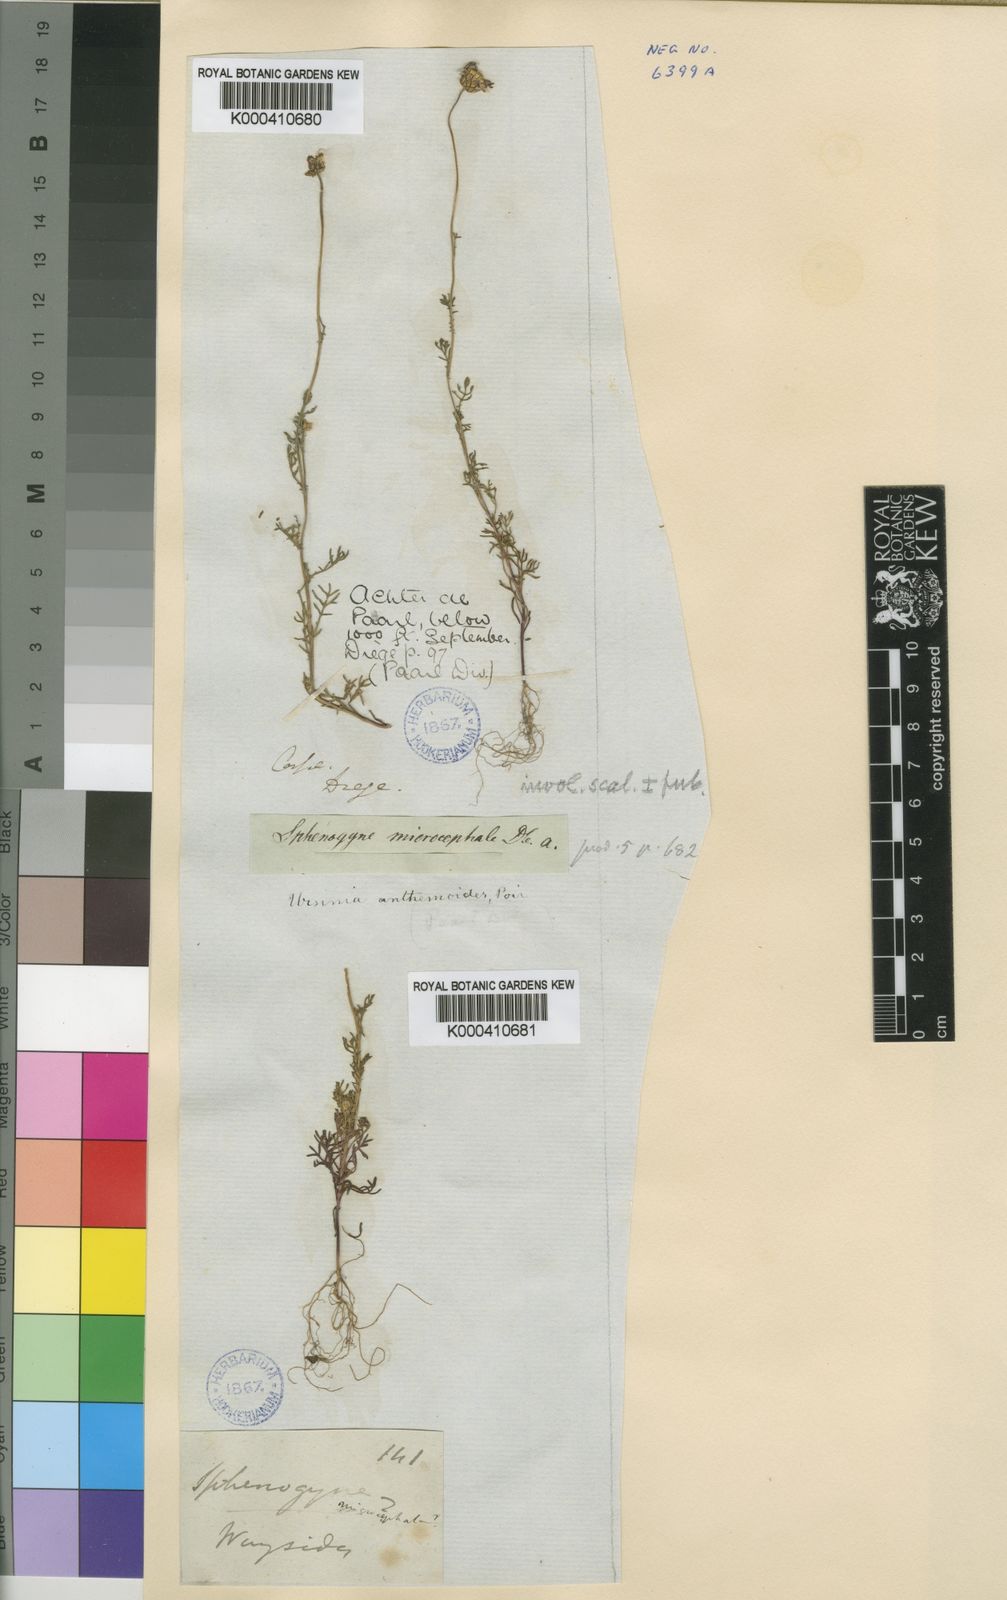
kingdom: Plantae
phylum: Tracheophyta
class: Magnoliopsida
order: Asterales
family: Asteraceae
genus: Ursinia
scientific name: Ursinia anthemoides
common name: Ursinia
